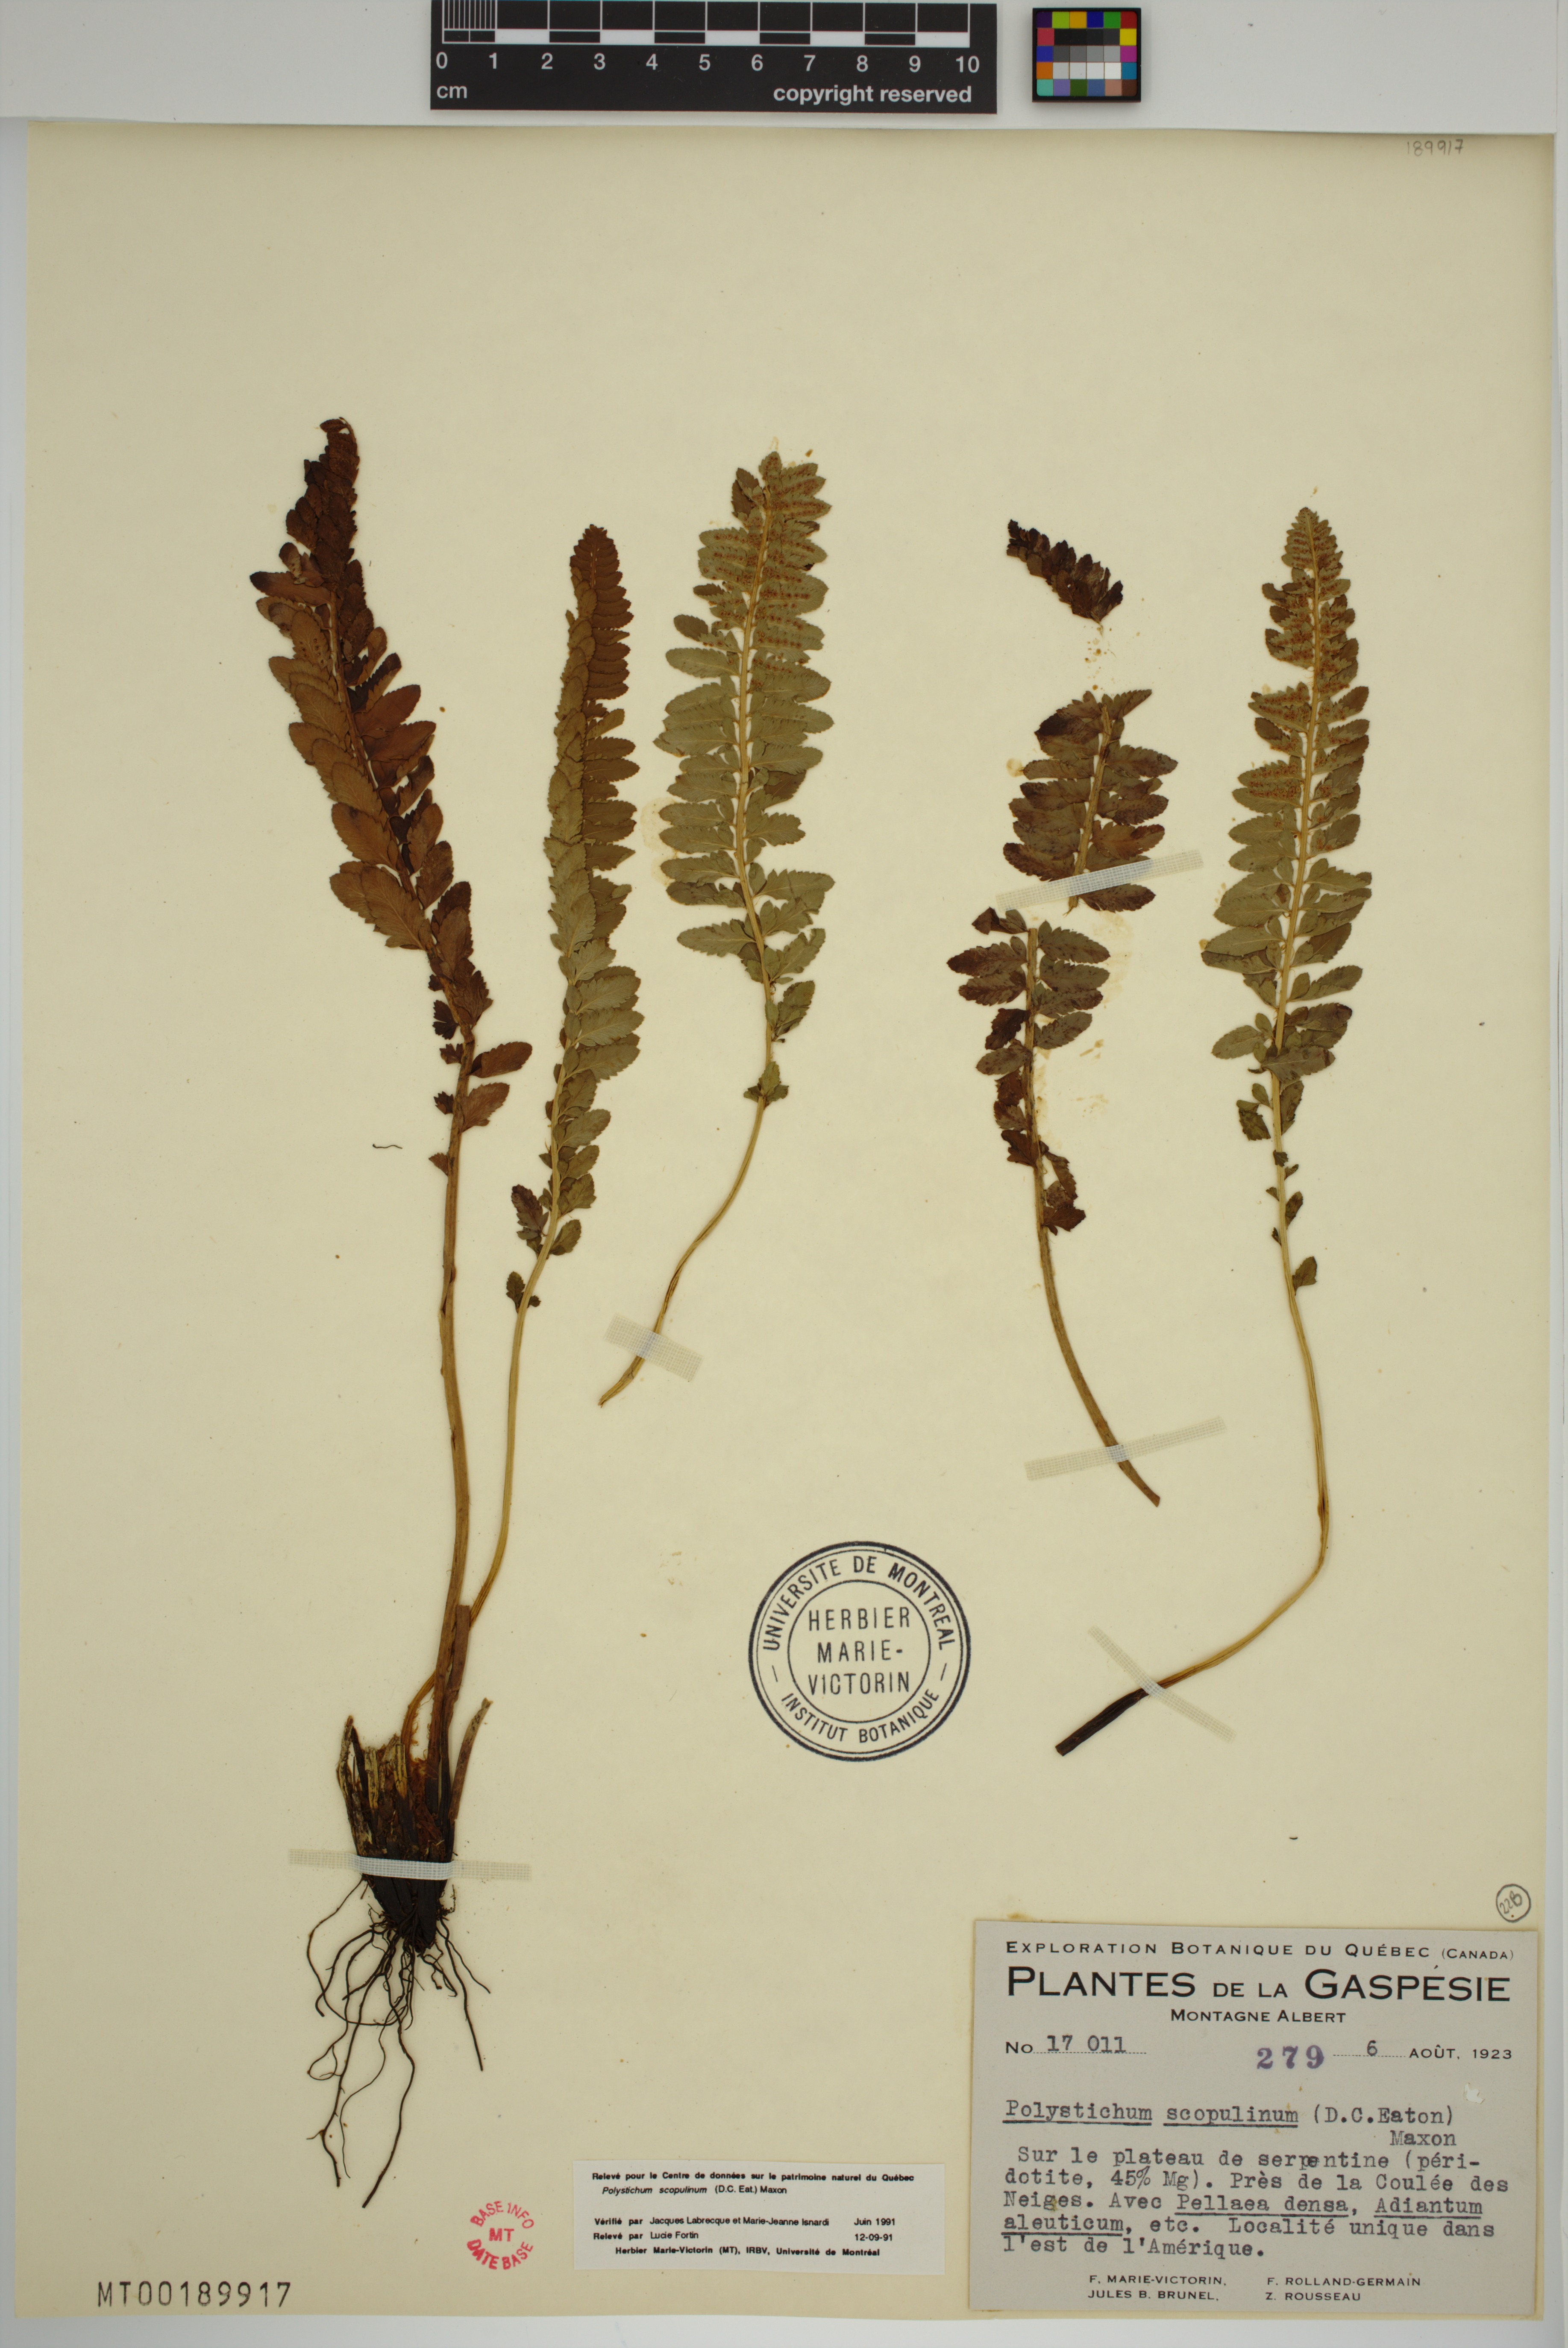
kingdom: Plantae
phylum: Tracheophyta
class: Polypodiopsida
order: Polypodiales
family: Dryopteridaceae
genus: Polystichum
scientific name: Polystichum scopulinum
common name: Eaton's shield fern
